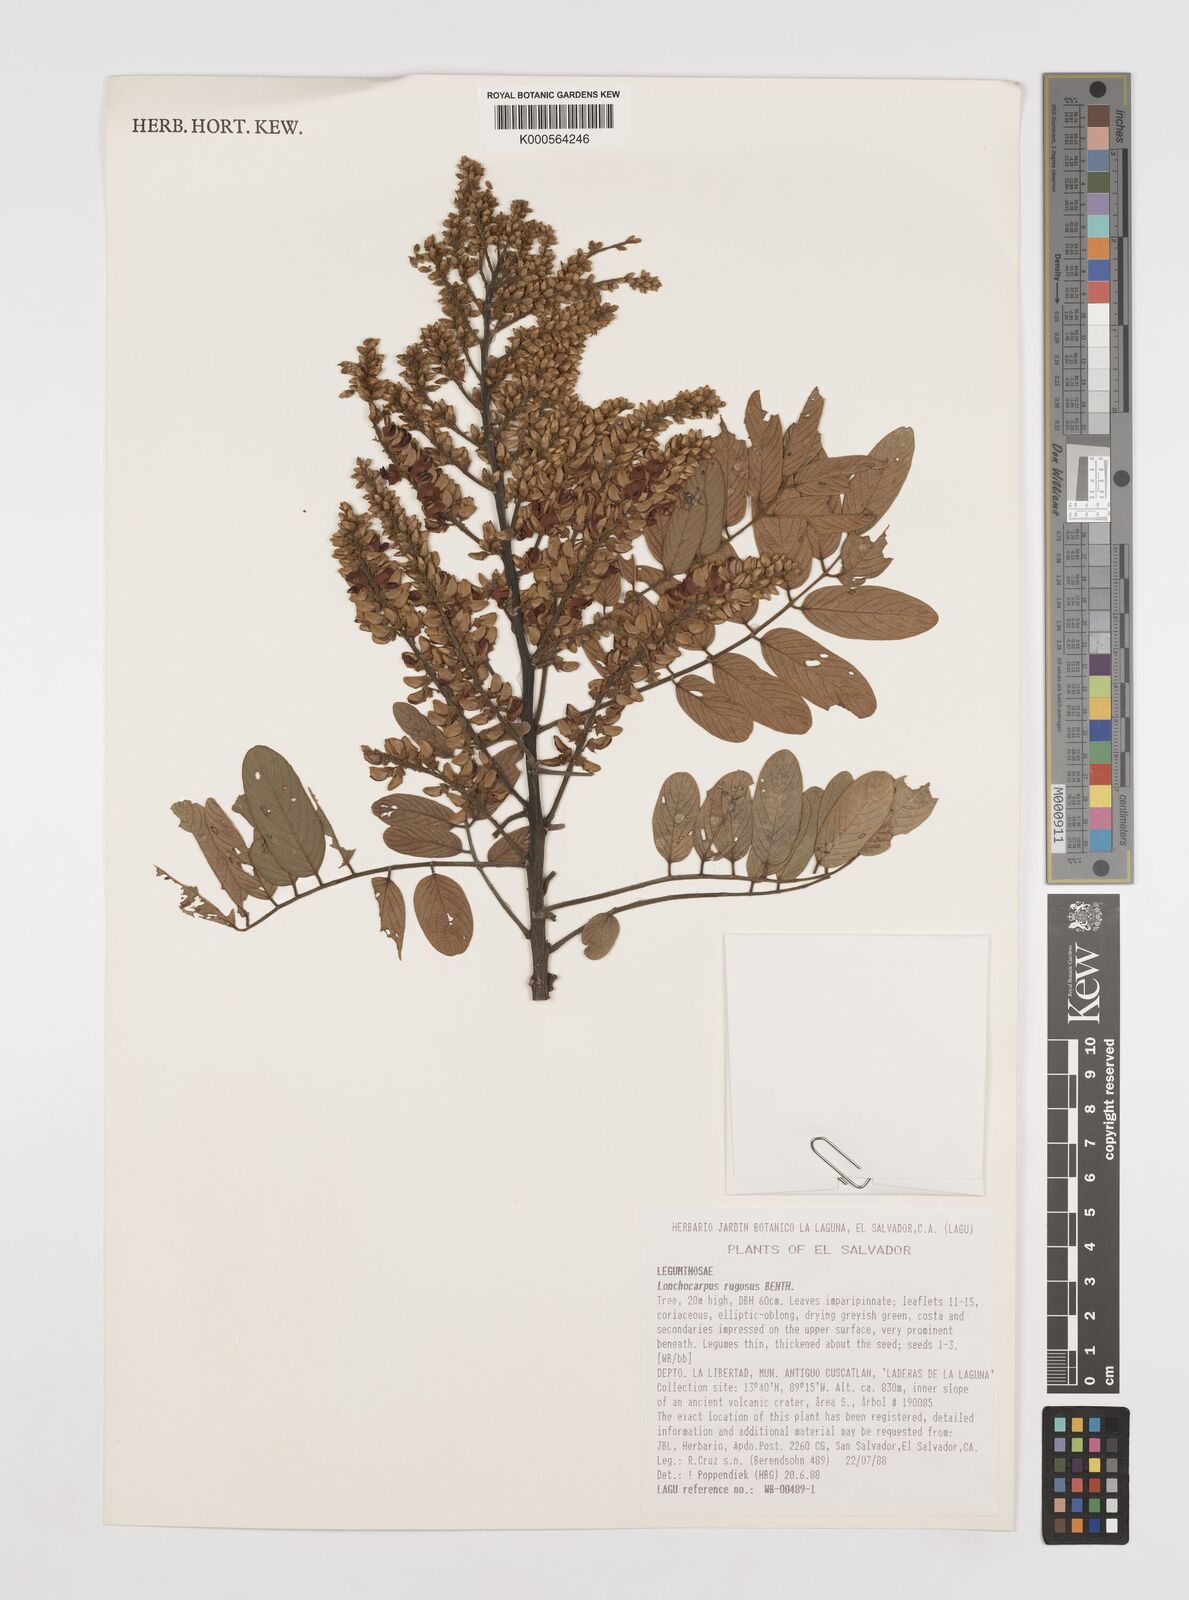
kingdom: Plantae
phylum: Tracheophyta
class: Magnoliopsida
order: Fabales
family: Fabaceae
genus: Lonchocarpus
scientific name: Lonchocarpus rugosus
